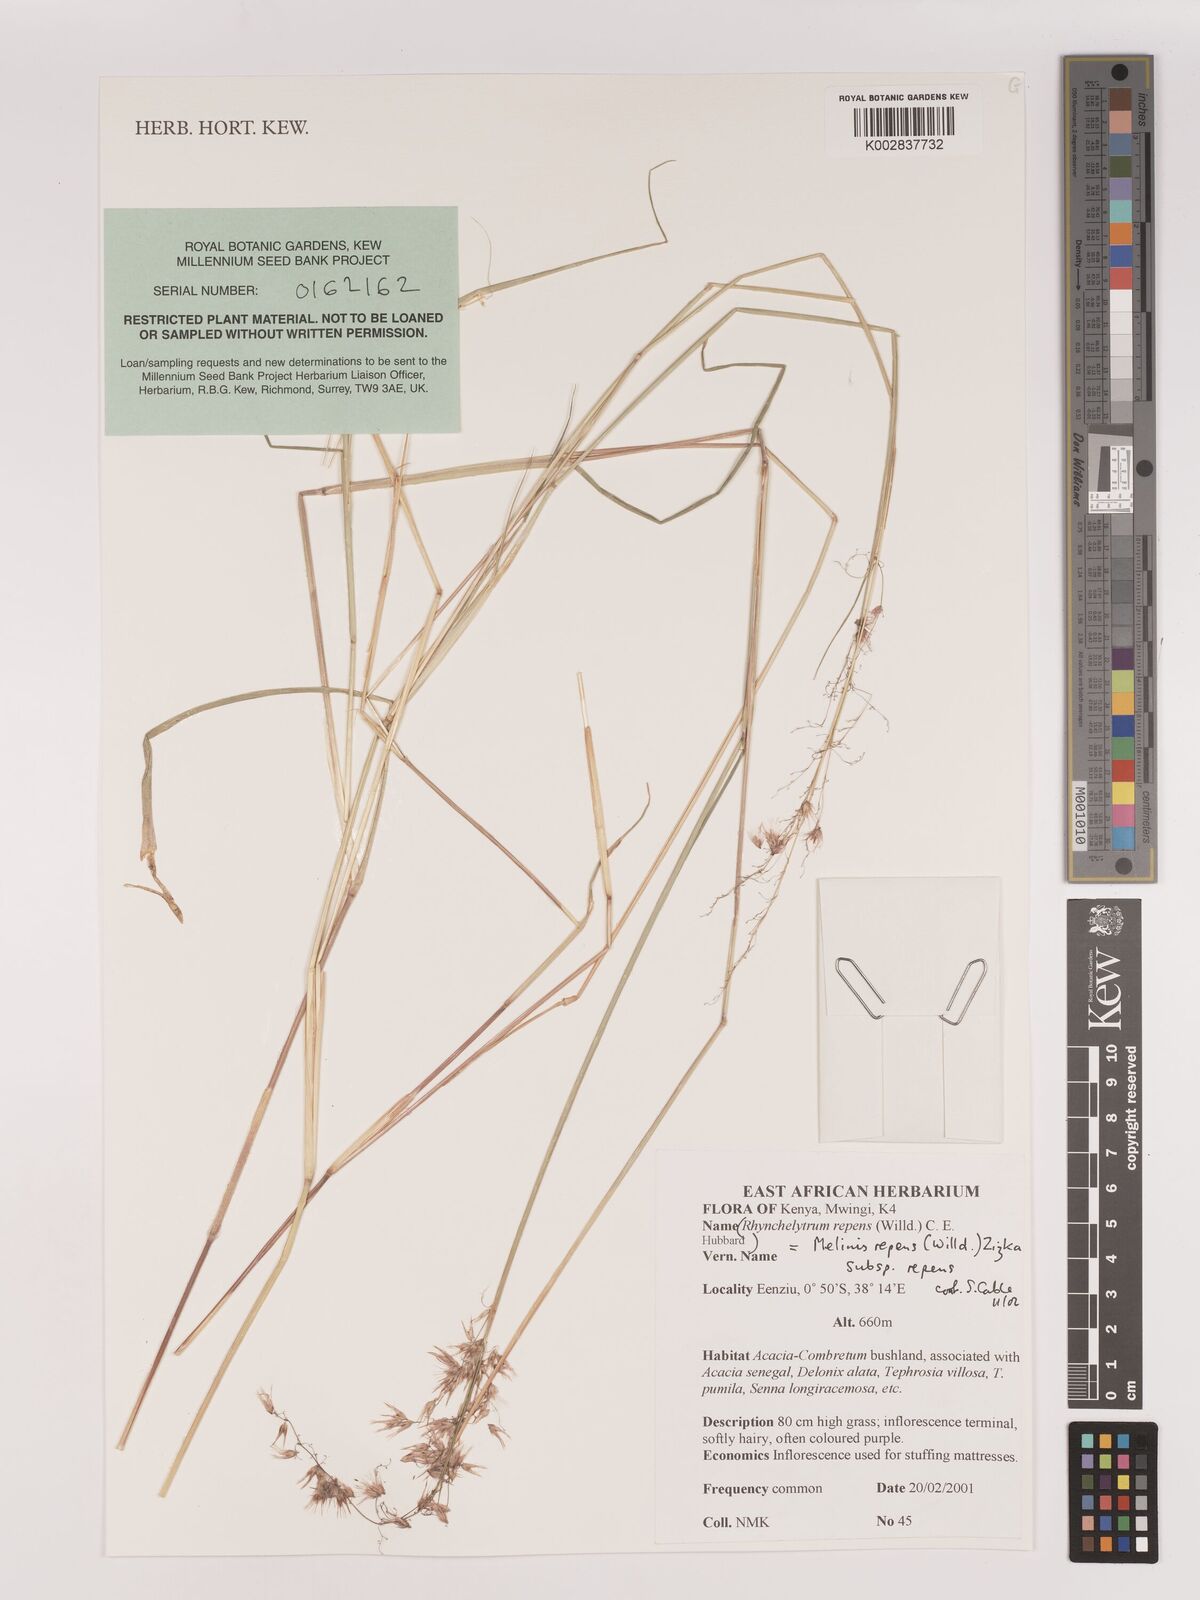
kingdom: Plantae
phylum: Tracheophyta
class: Liliopsida
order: Poales
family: Poaceae
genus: Melinis
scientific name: Melinis repens
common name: Rose natal grass
